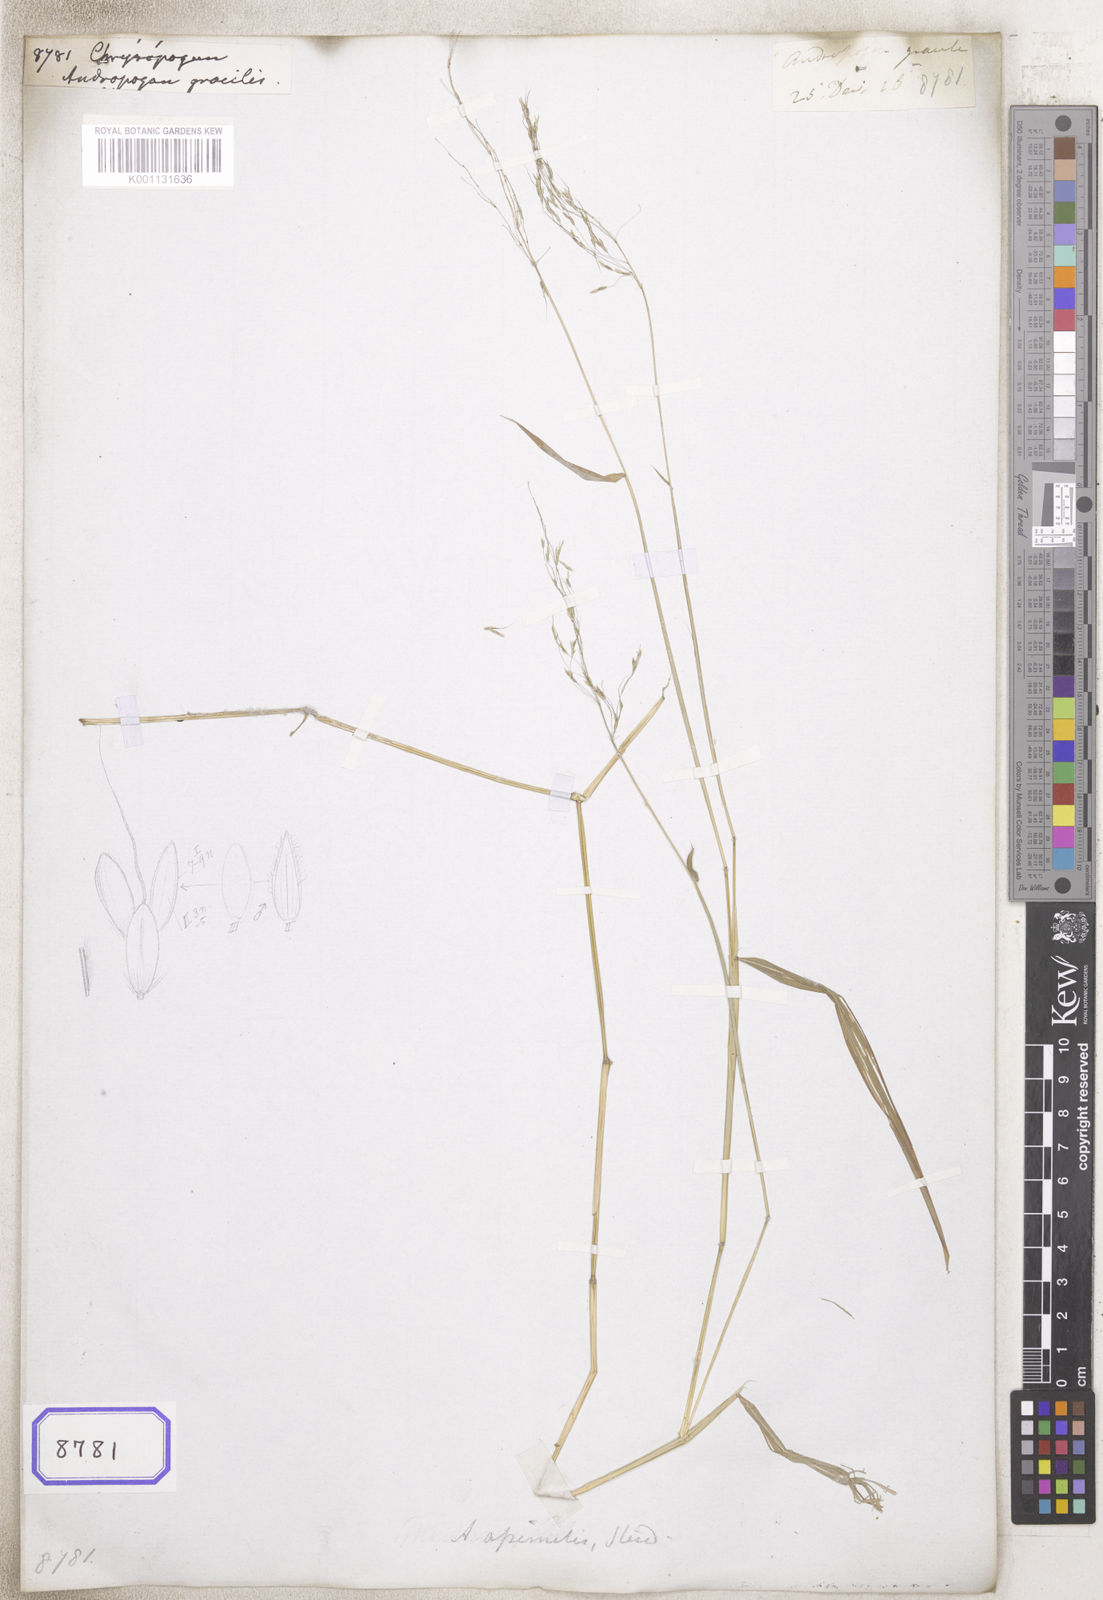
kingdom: Plantae
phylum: Tracheophyta
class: Liliopsida
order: Poales
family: Poaceae
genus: Chrysopogon
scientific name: Chrysopogon
